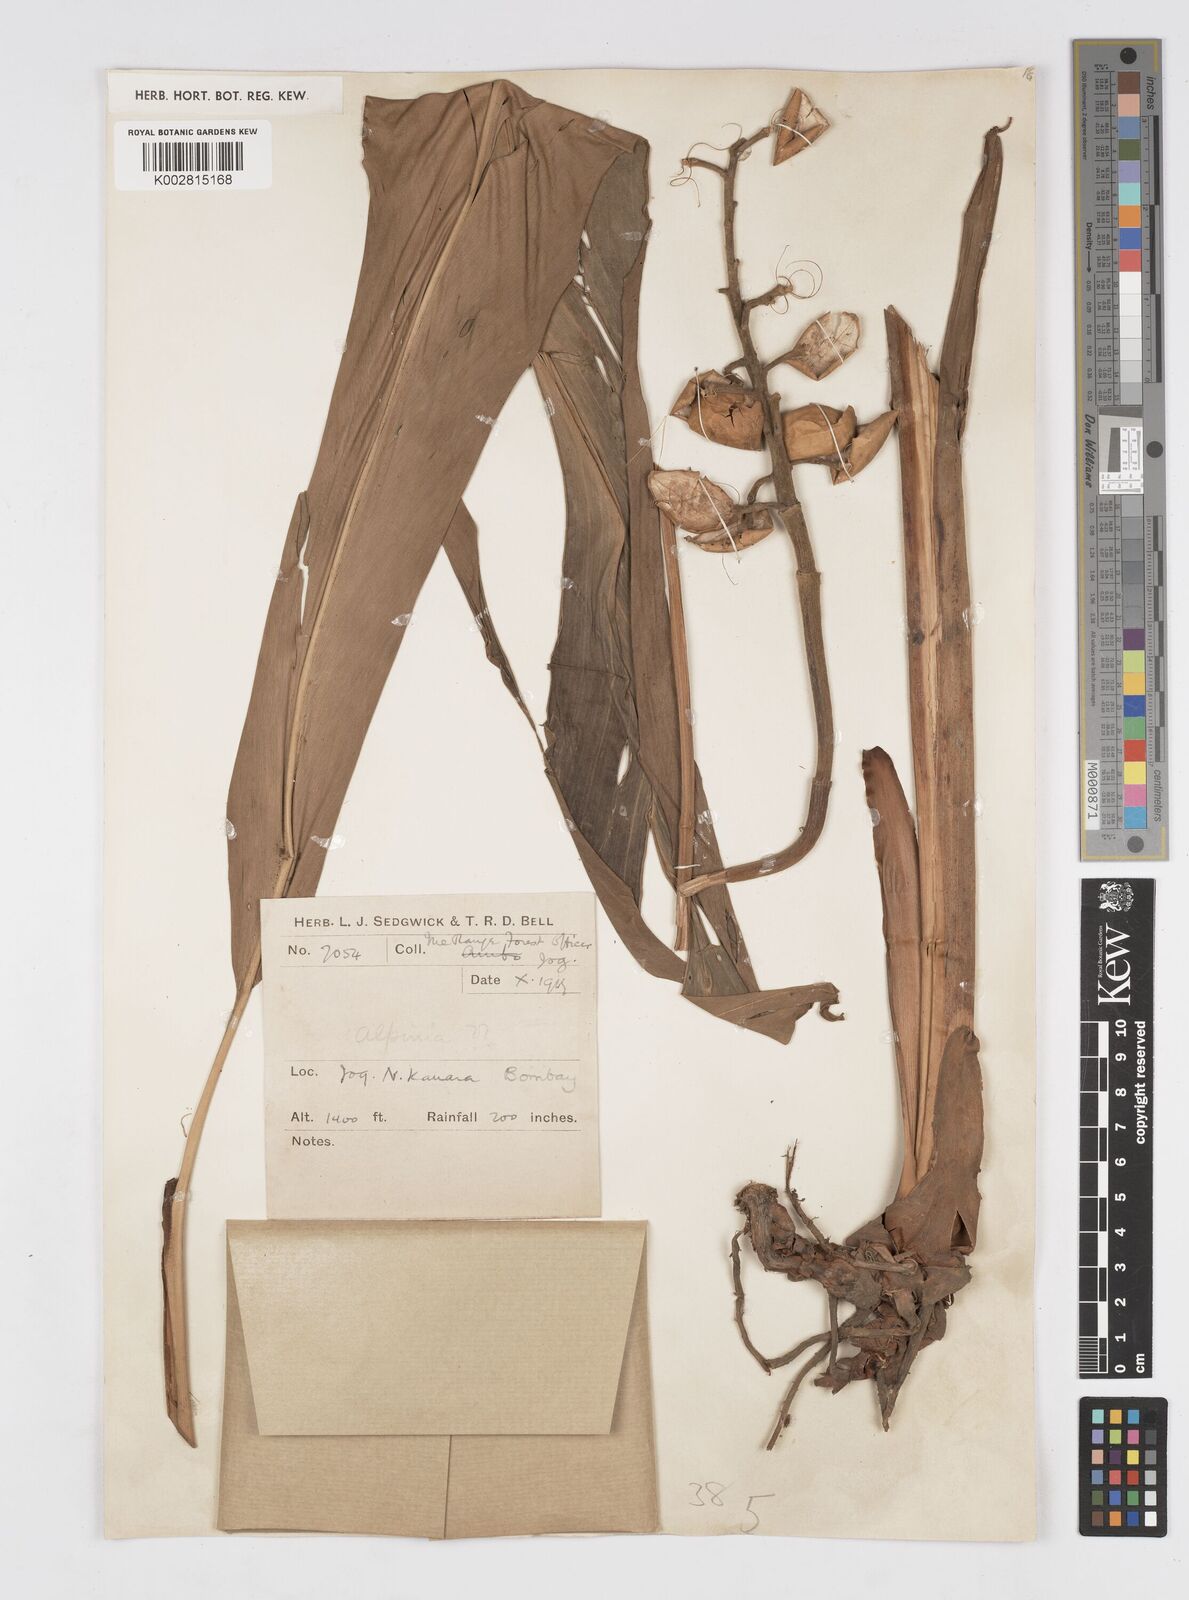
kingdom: Plantae
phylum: Tracheophyta
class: Liliopsida
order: Zingiberales
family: Zingiberaceae
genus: Alpinia
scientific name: Alpinia
